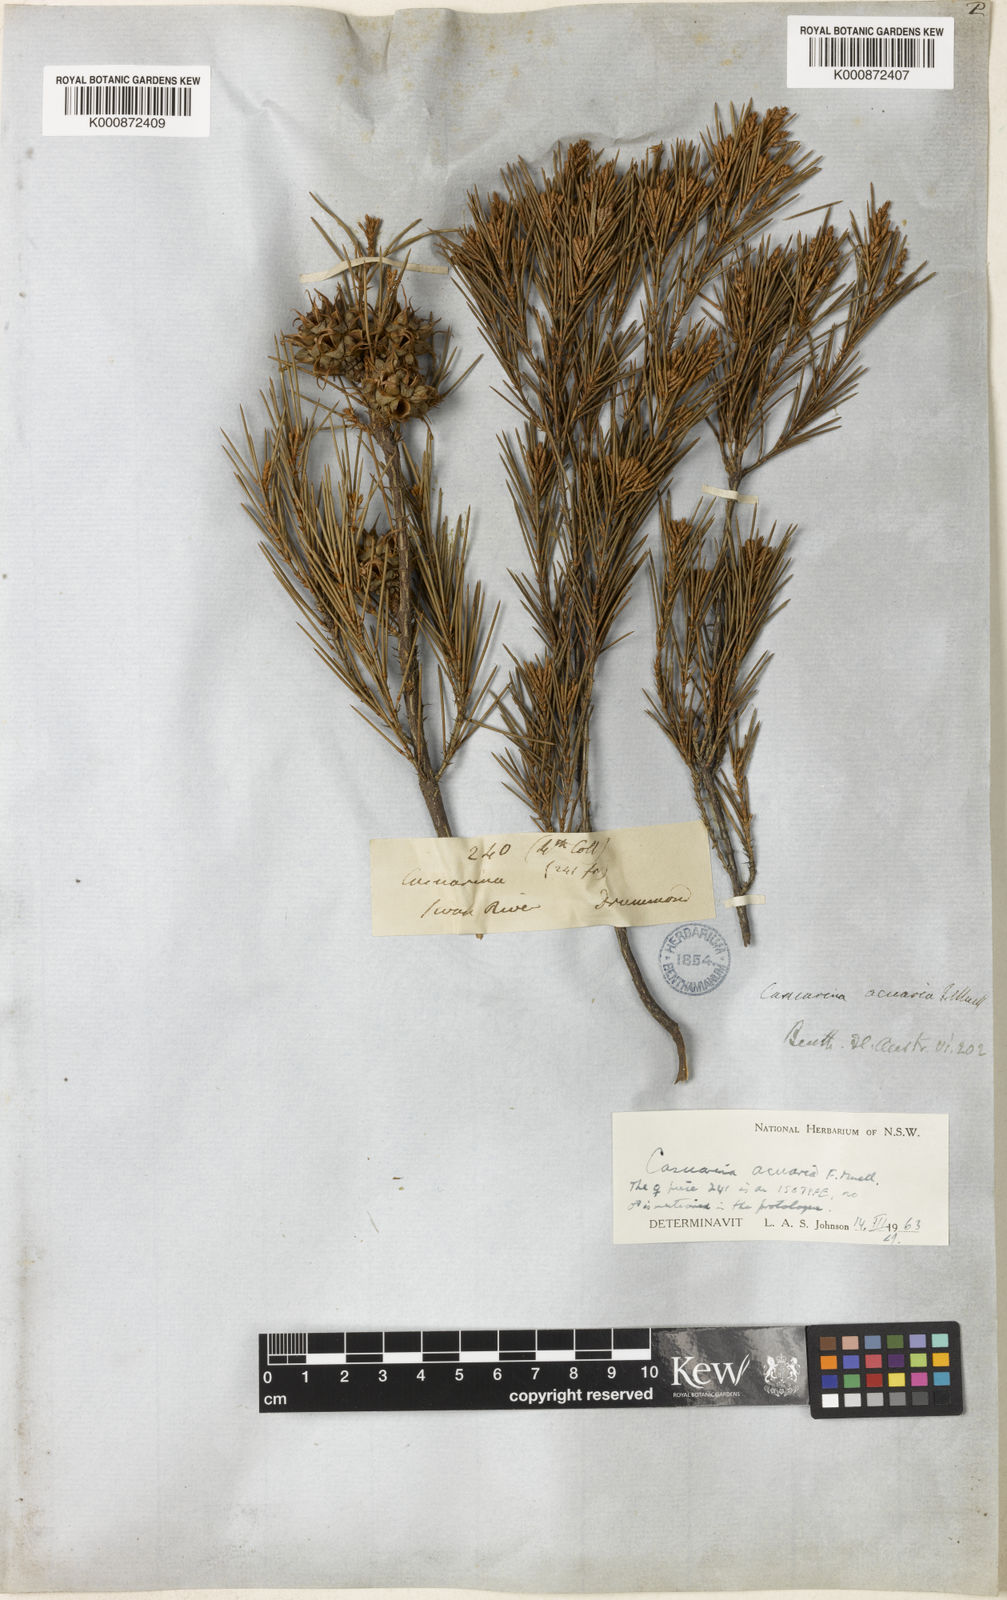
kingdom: Plantae
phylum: Tracheophyta
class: Magnoliopsida
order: Fagales
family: Casuarinaceae
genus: Allocasuarina
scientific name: Allocasuarina acuaria
